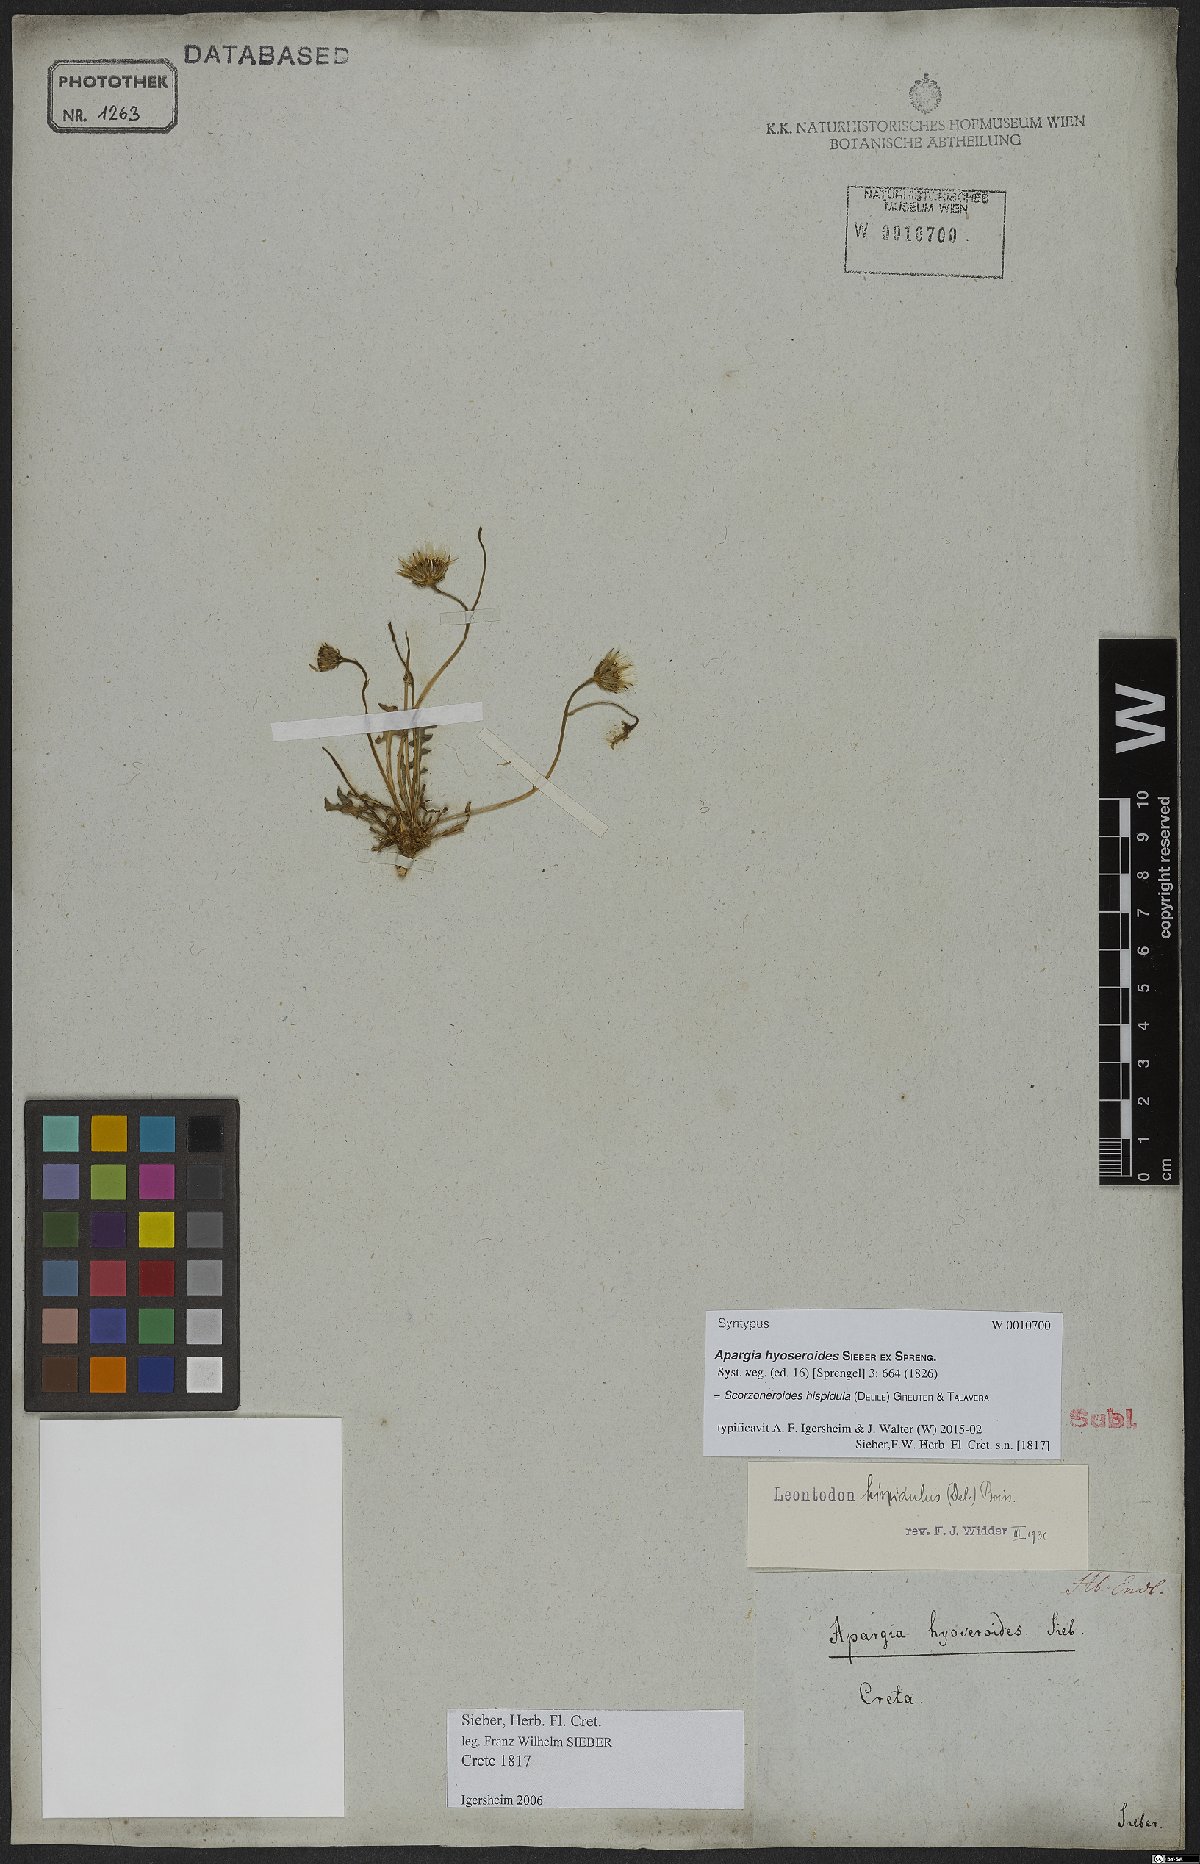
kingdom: Plantae
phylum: Tracheophyta
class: Magnoliopsida
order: Asterales
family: Asteraceae
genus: Scorzoneroides
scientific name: Scorzoneroides hispidula
